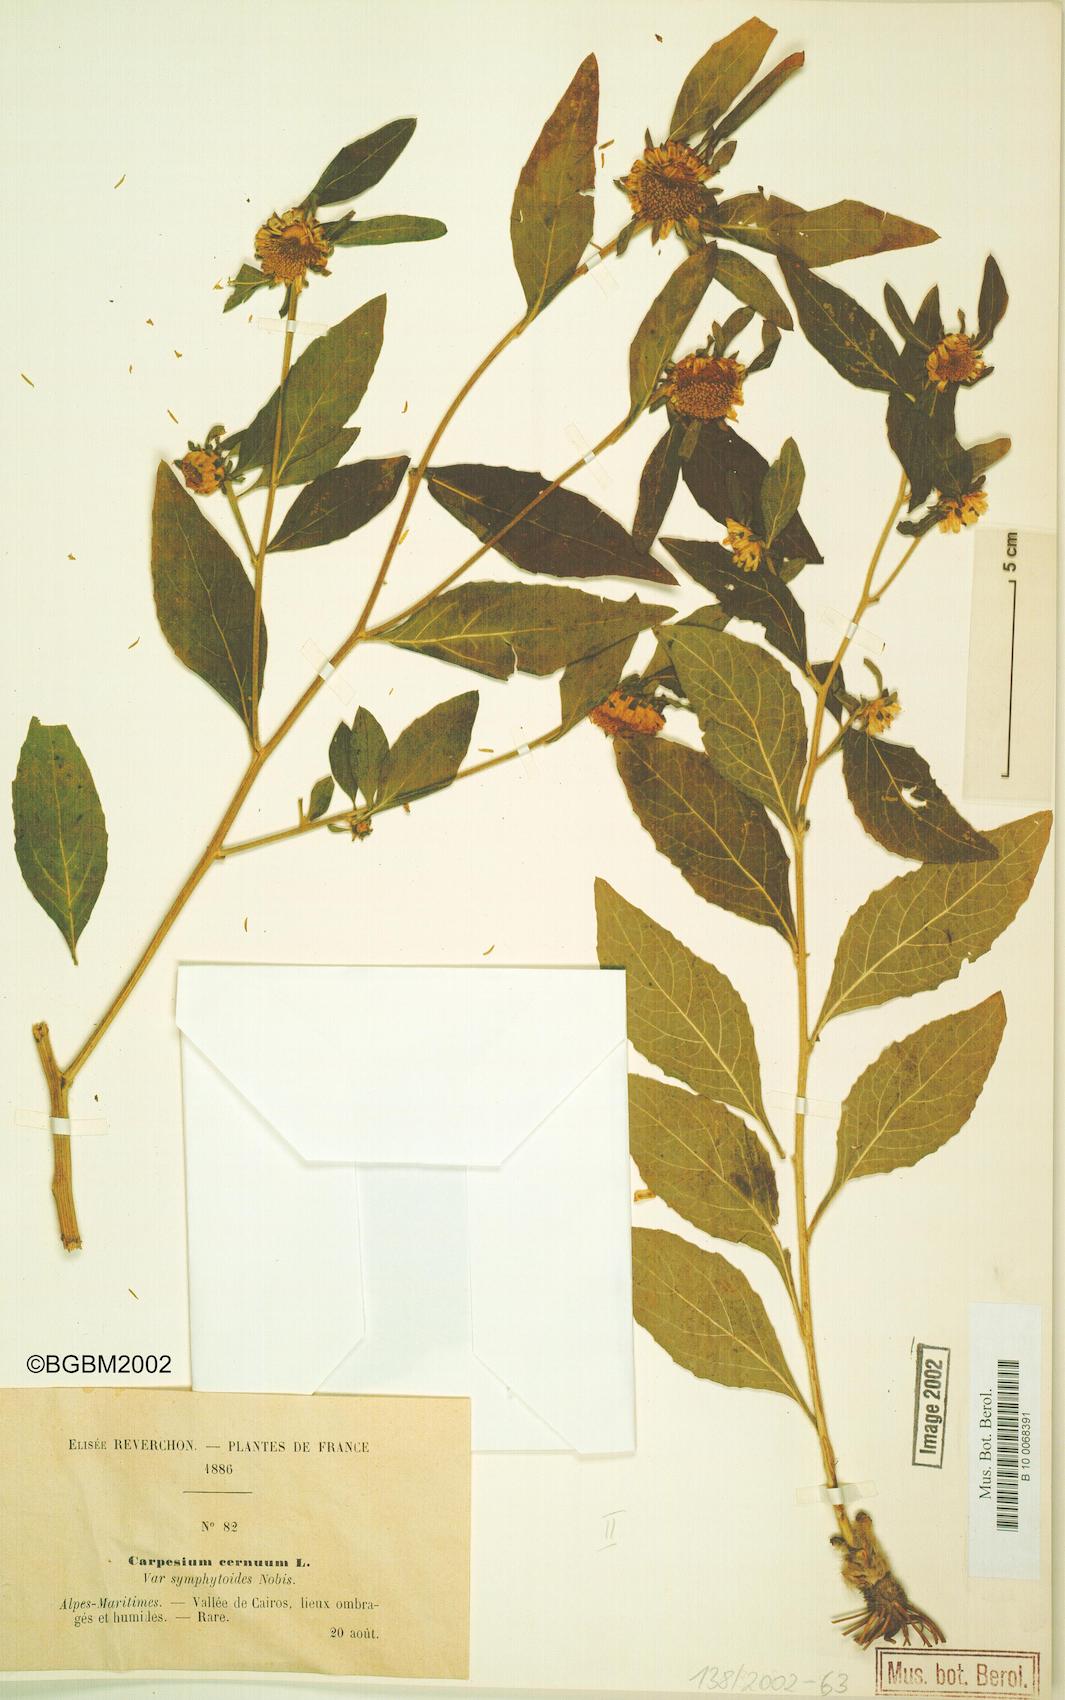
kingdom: Plantae
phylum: Tracheophyta
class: Magnoliopsida
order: Asterales
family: Asteraceae
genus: Carpesium
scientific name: Carpesium cernuum
